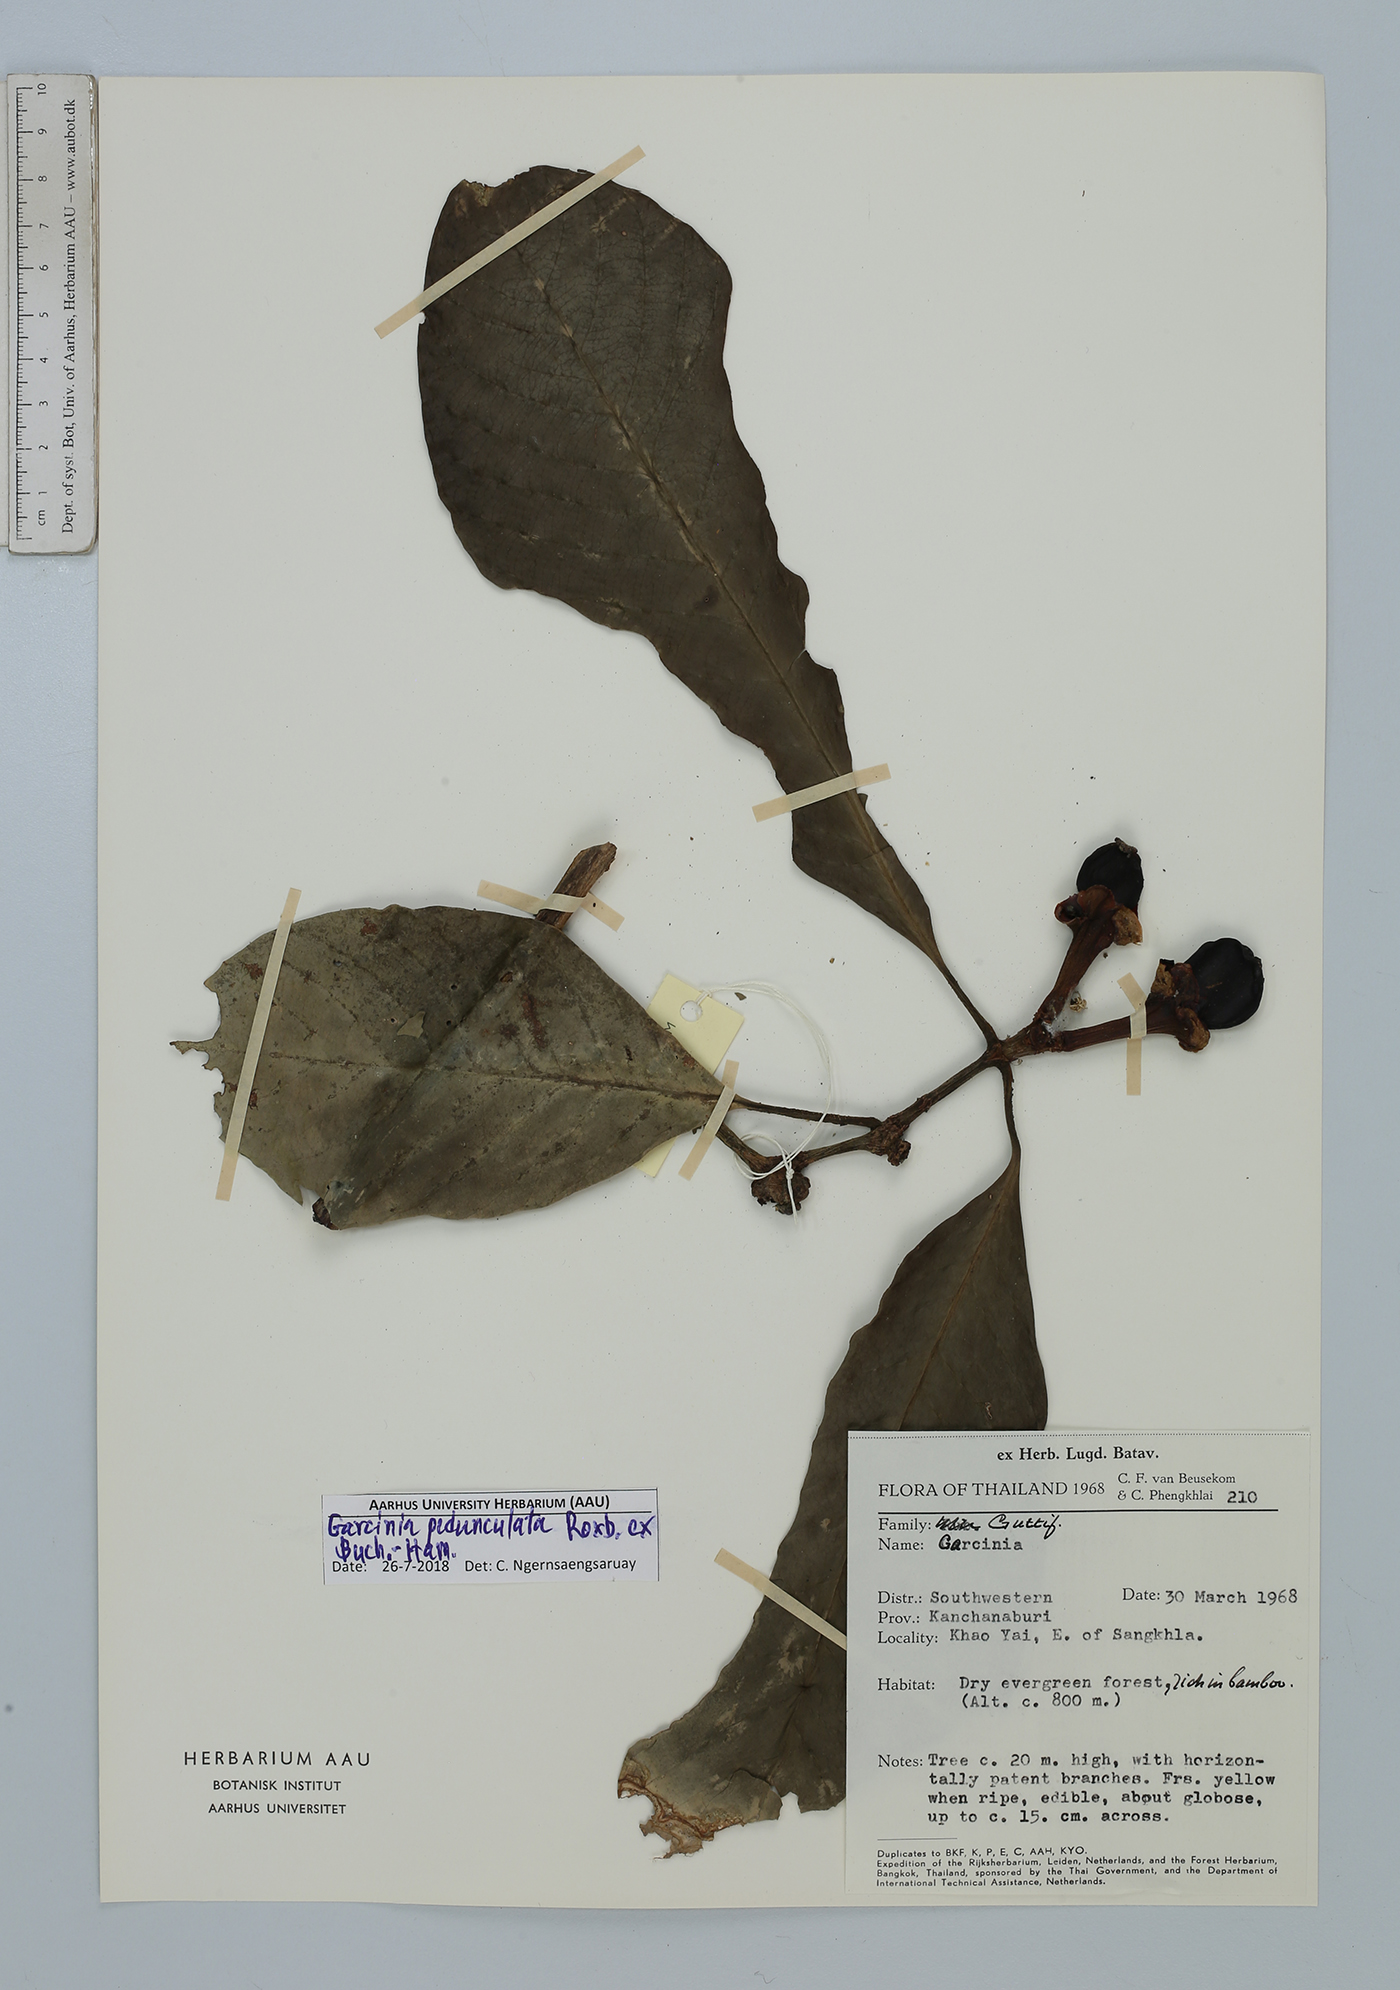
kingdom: Plantae
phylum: Tracheophyta
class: Magnoliopsida
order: Malpighiales
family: Clusiaceae
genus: Garcinia
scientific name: Garcinia pedunculata
